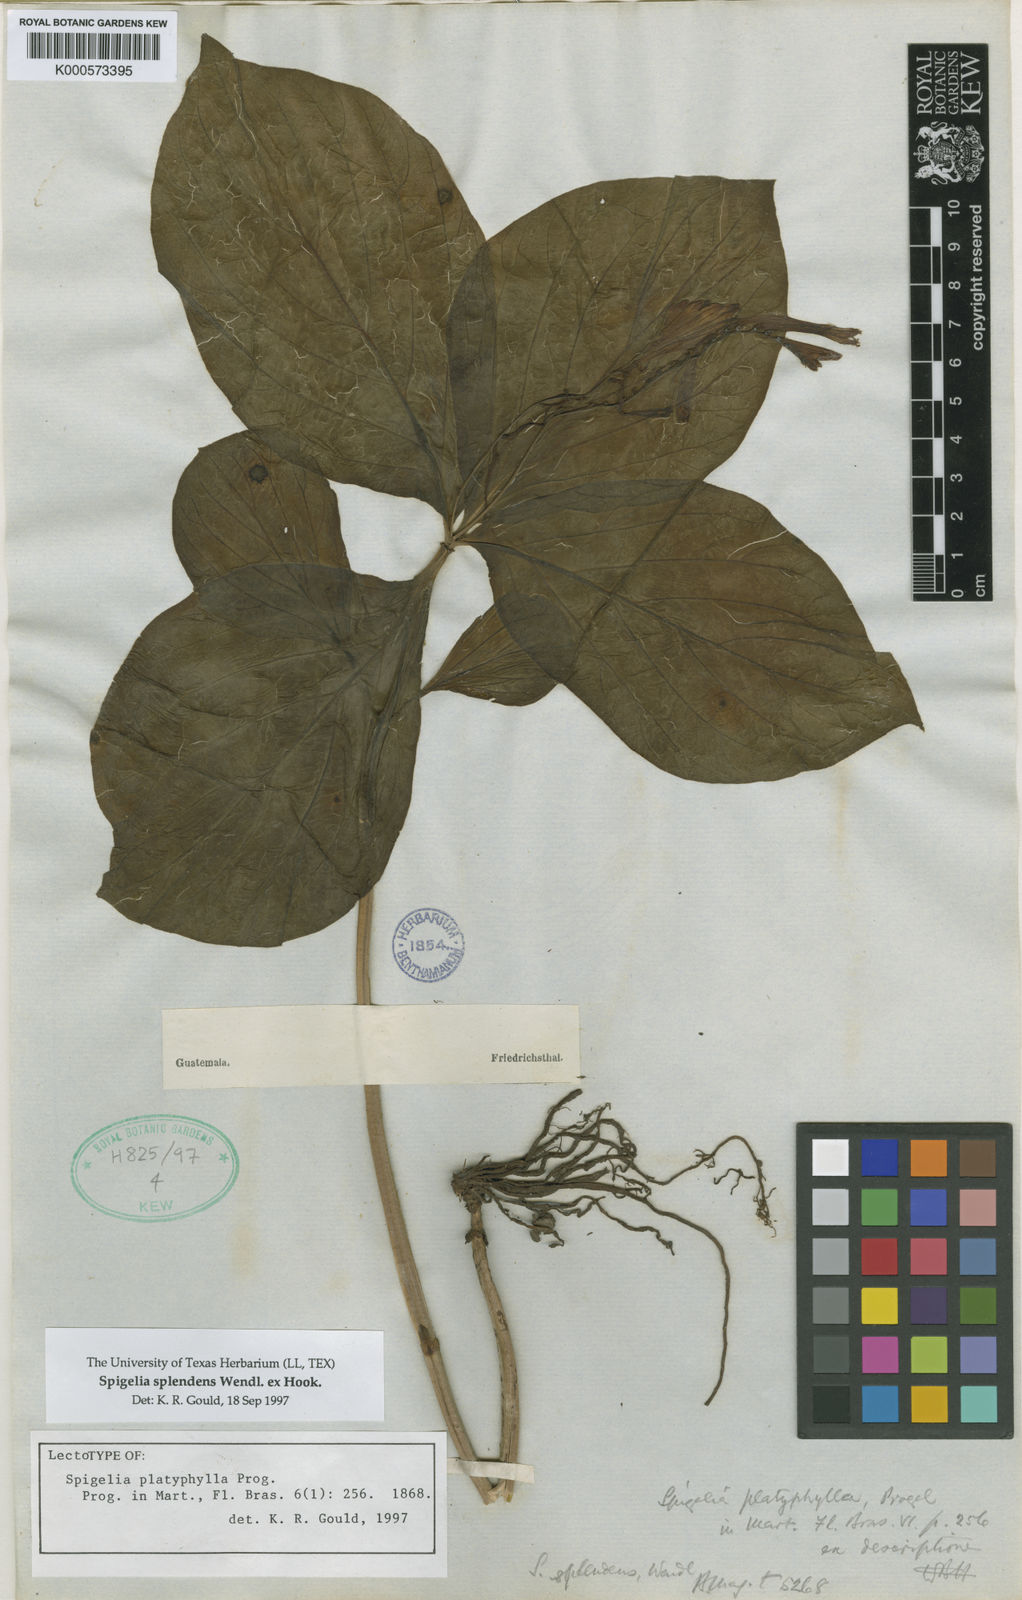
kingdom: Plantae
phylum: Tracheophyta
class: Magnoliopsida
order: Gentianales
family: Loganiaceae
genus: Spigelia
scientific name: Spigelia splendens
